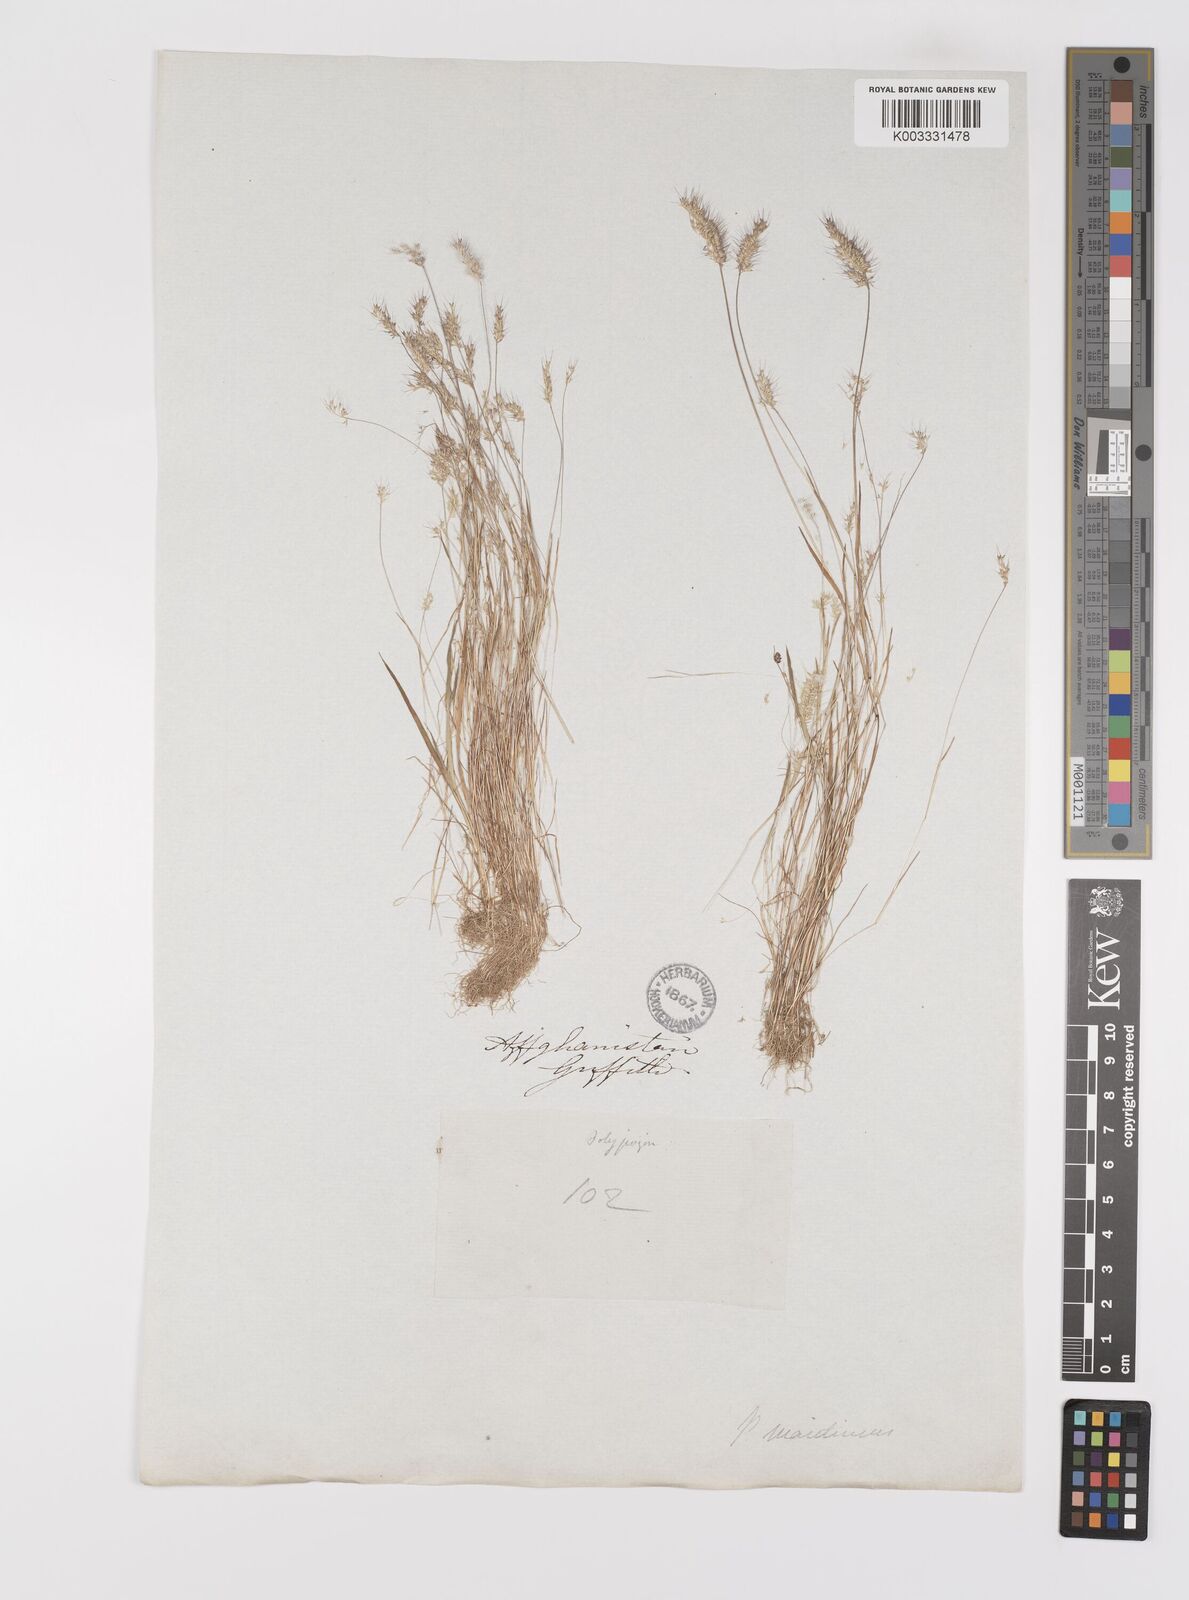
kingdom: Plantae
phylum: Tracheophyta
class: Liliopsida
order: Poales
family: Poaceae
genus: Polypogon
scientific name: Polypogon maritimus
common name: Mediterranean rabbitsfoot grass
